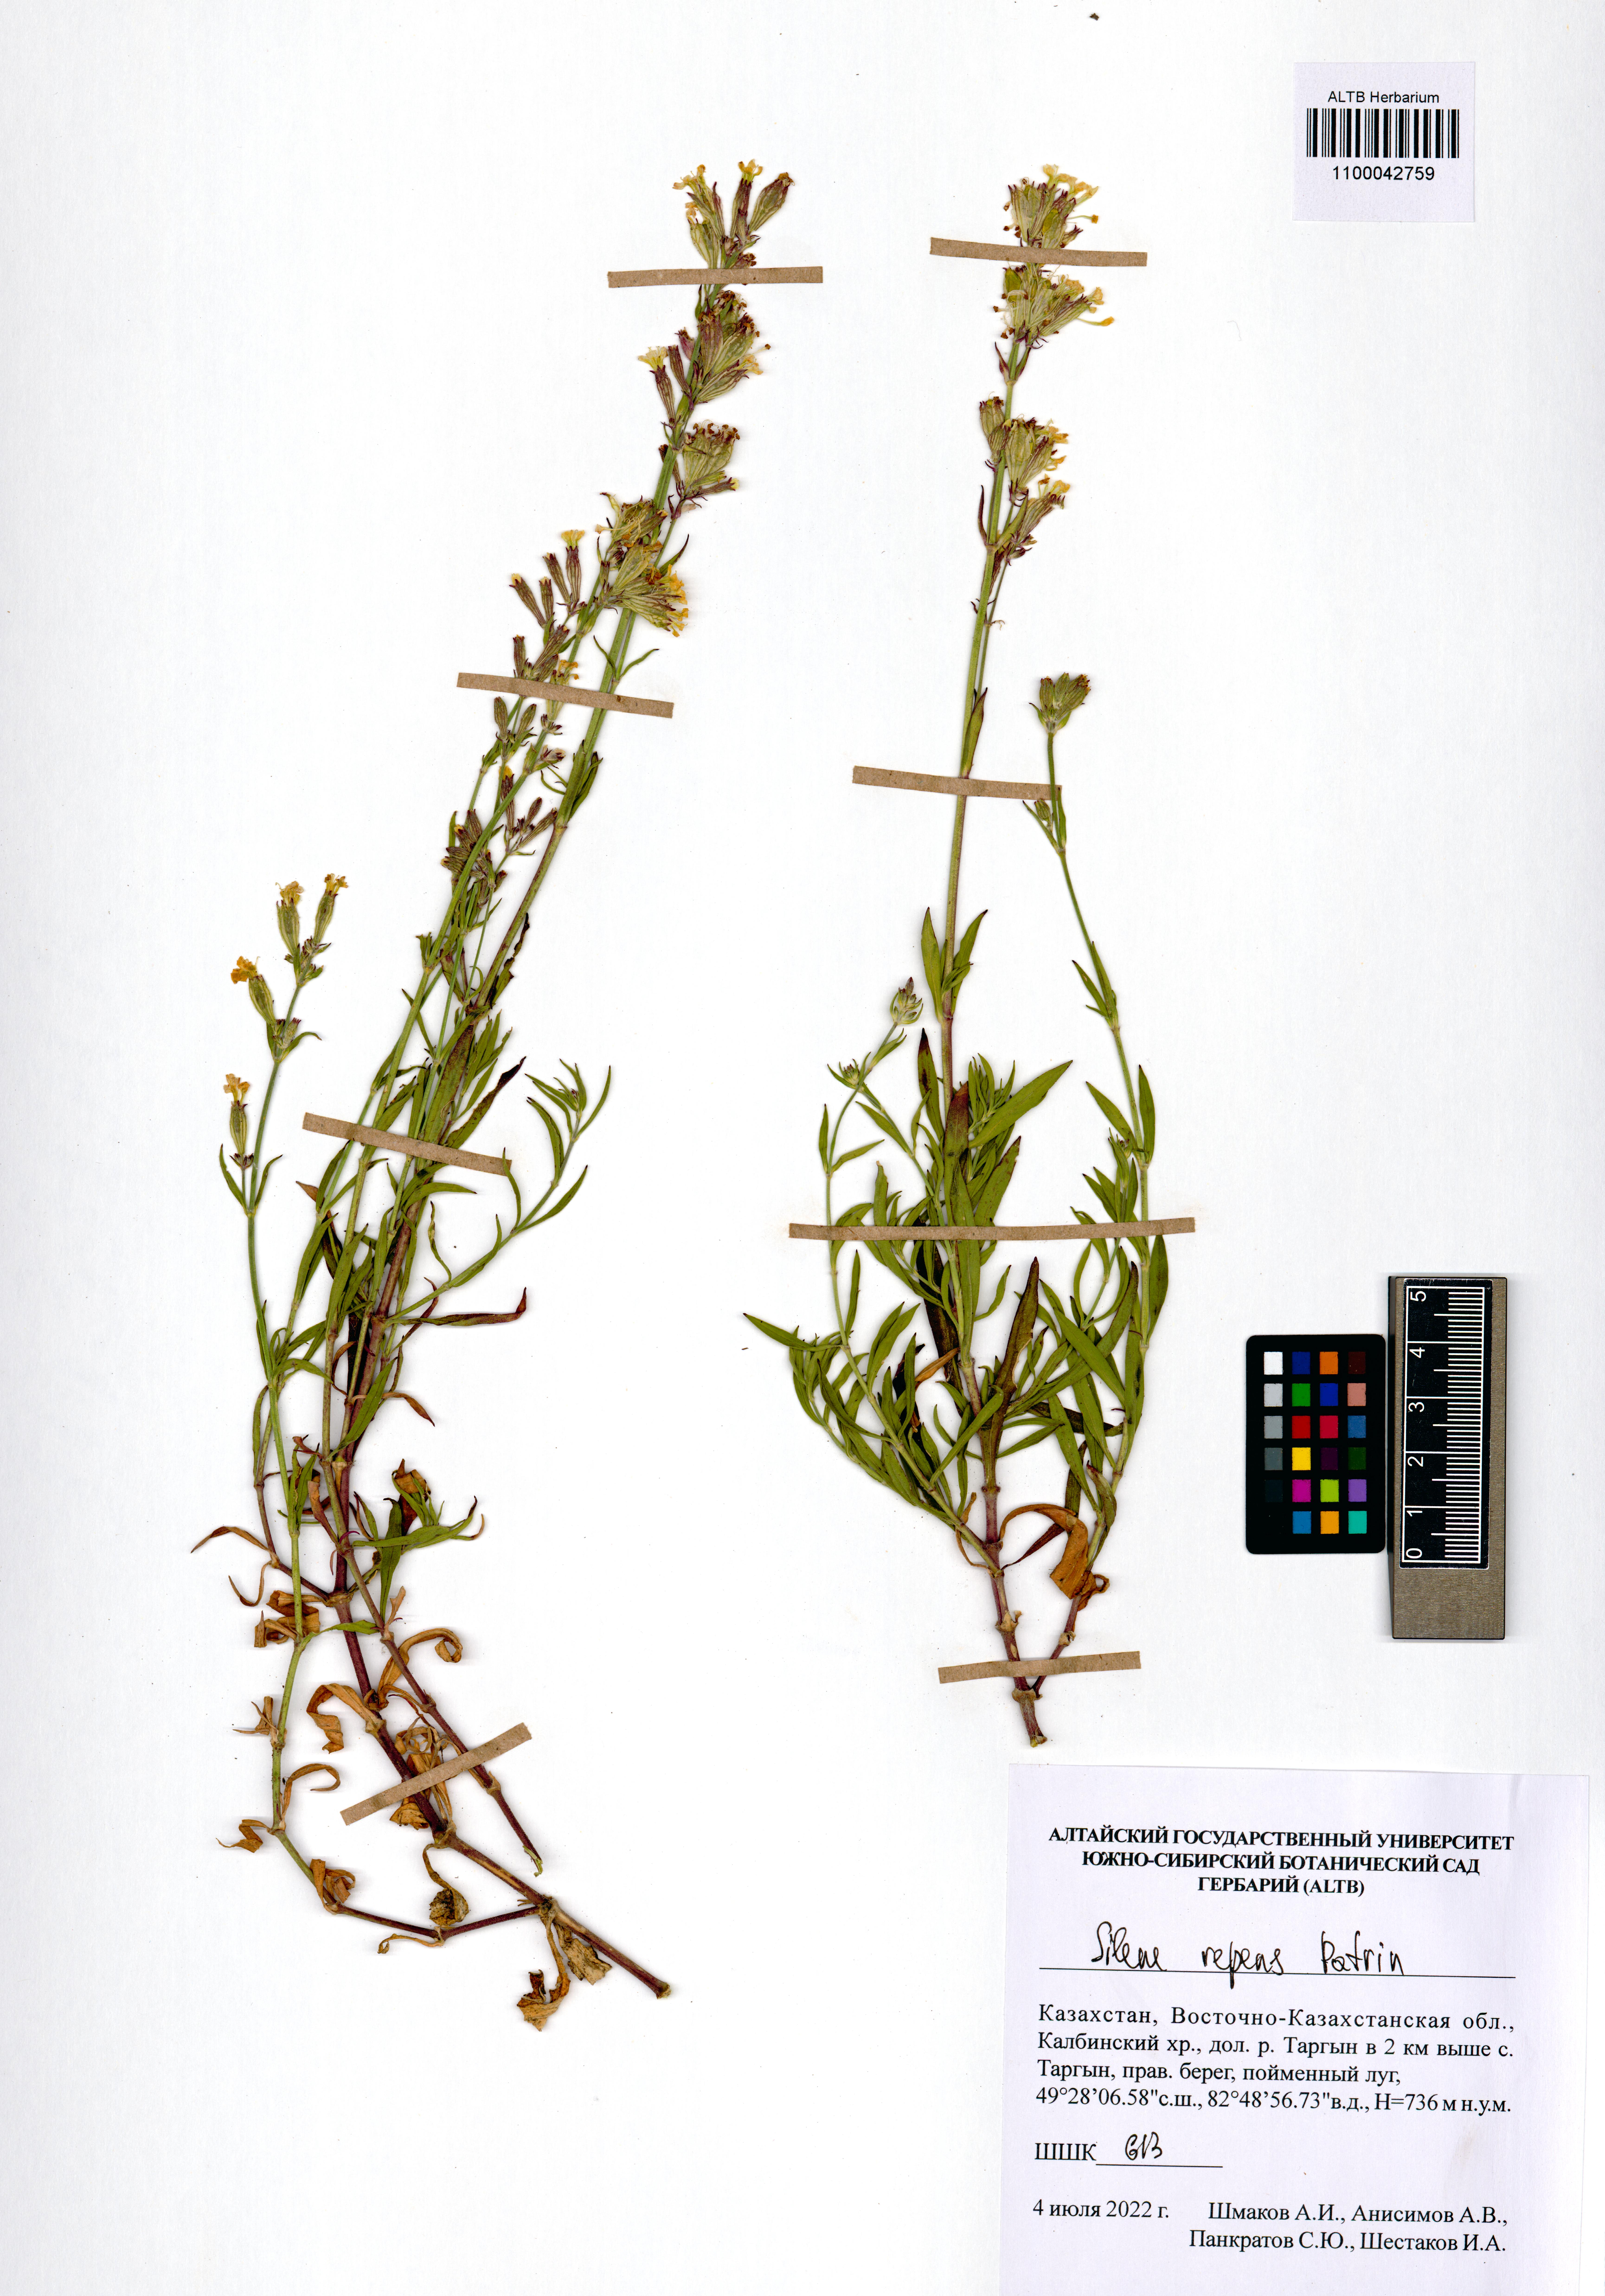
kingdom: Plantae
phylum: Tracheophyta
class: Magnoliopsida
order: Caryophyllales
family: Caryophyllaceae
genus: Silene
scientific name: Silene repens
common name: Pink campion
